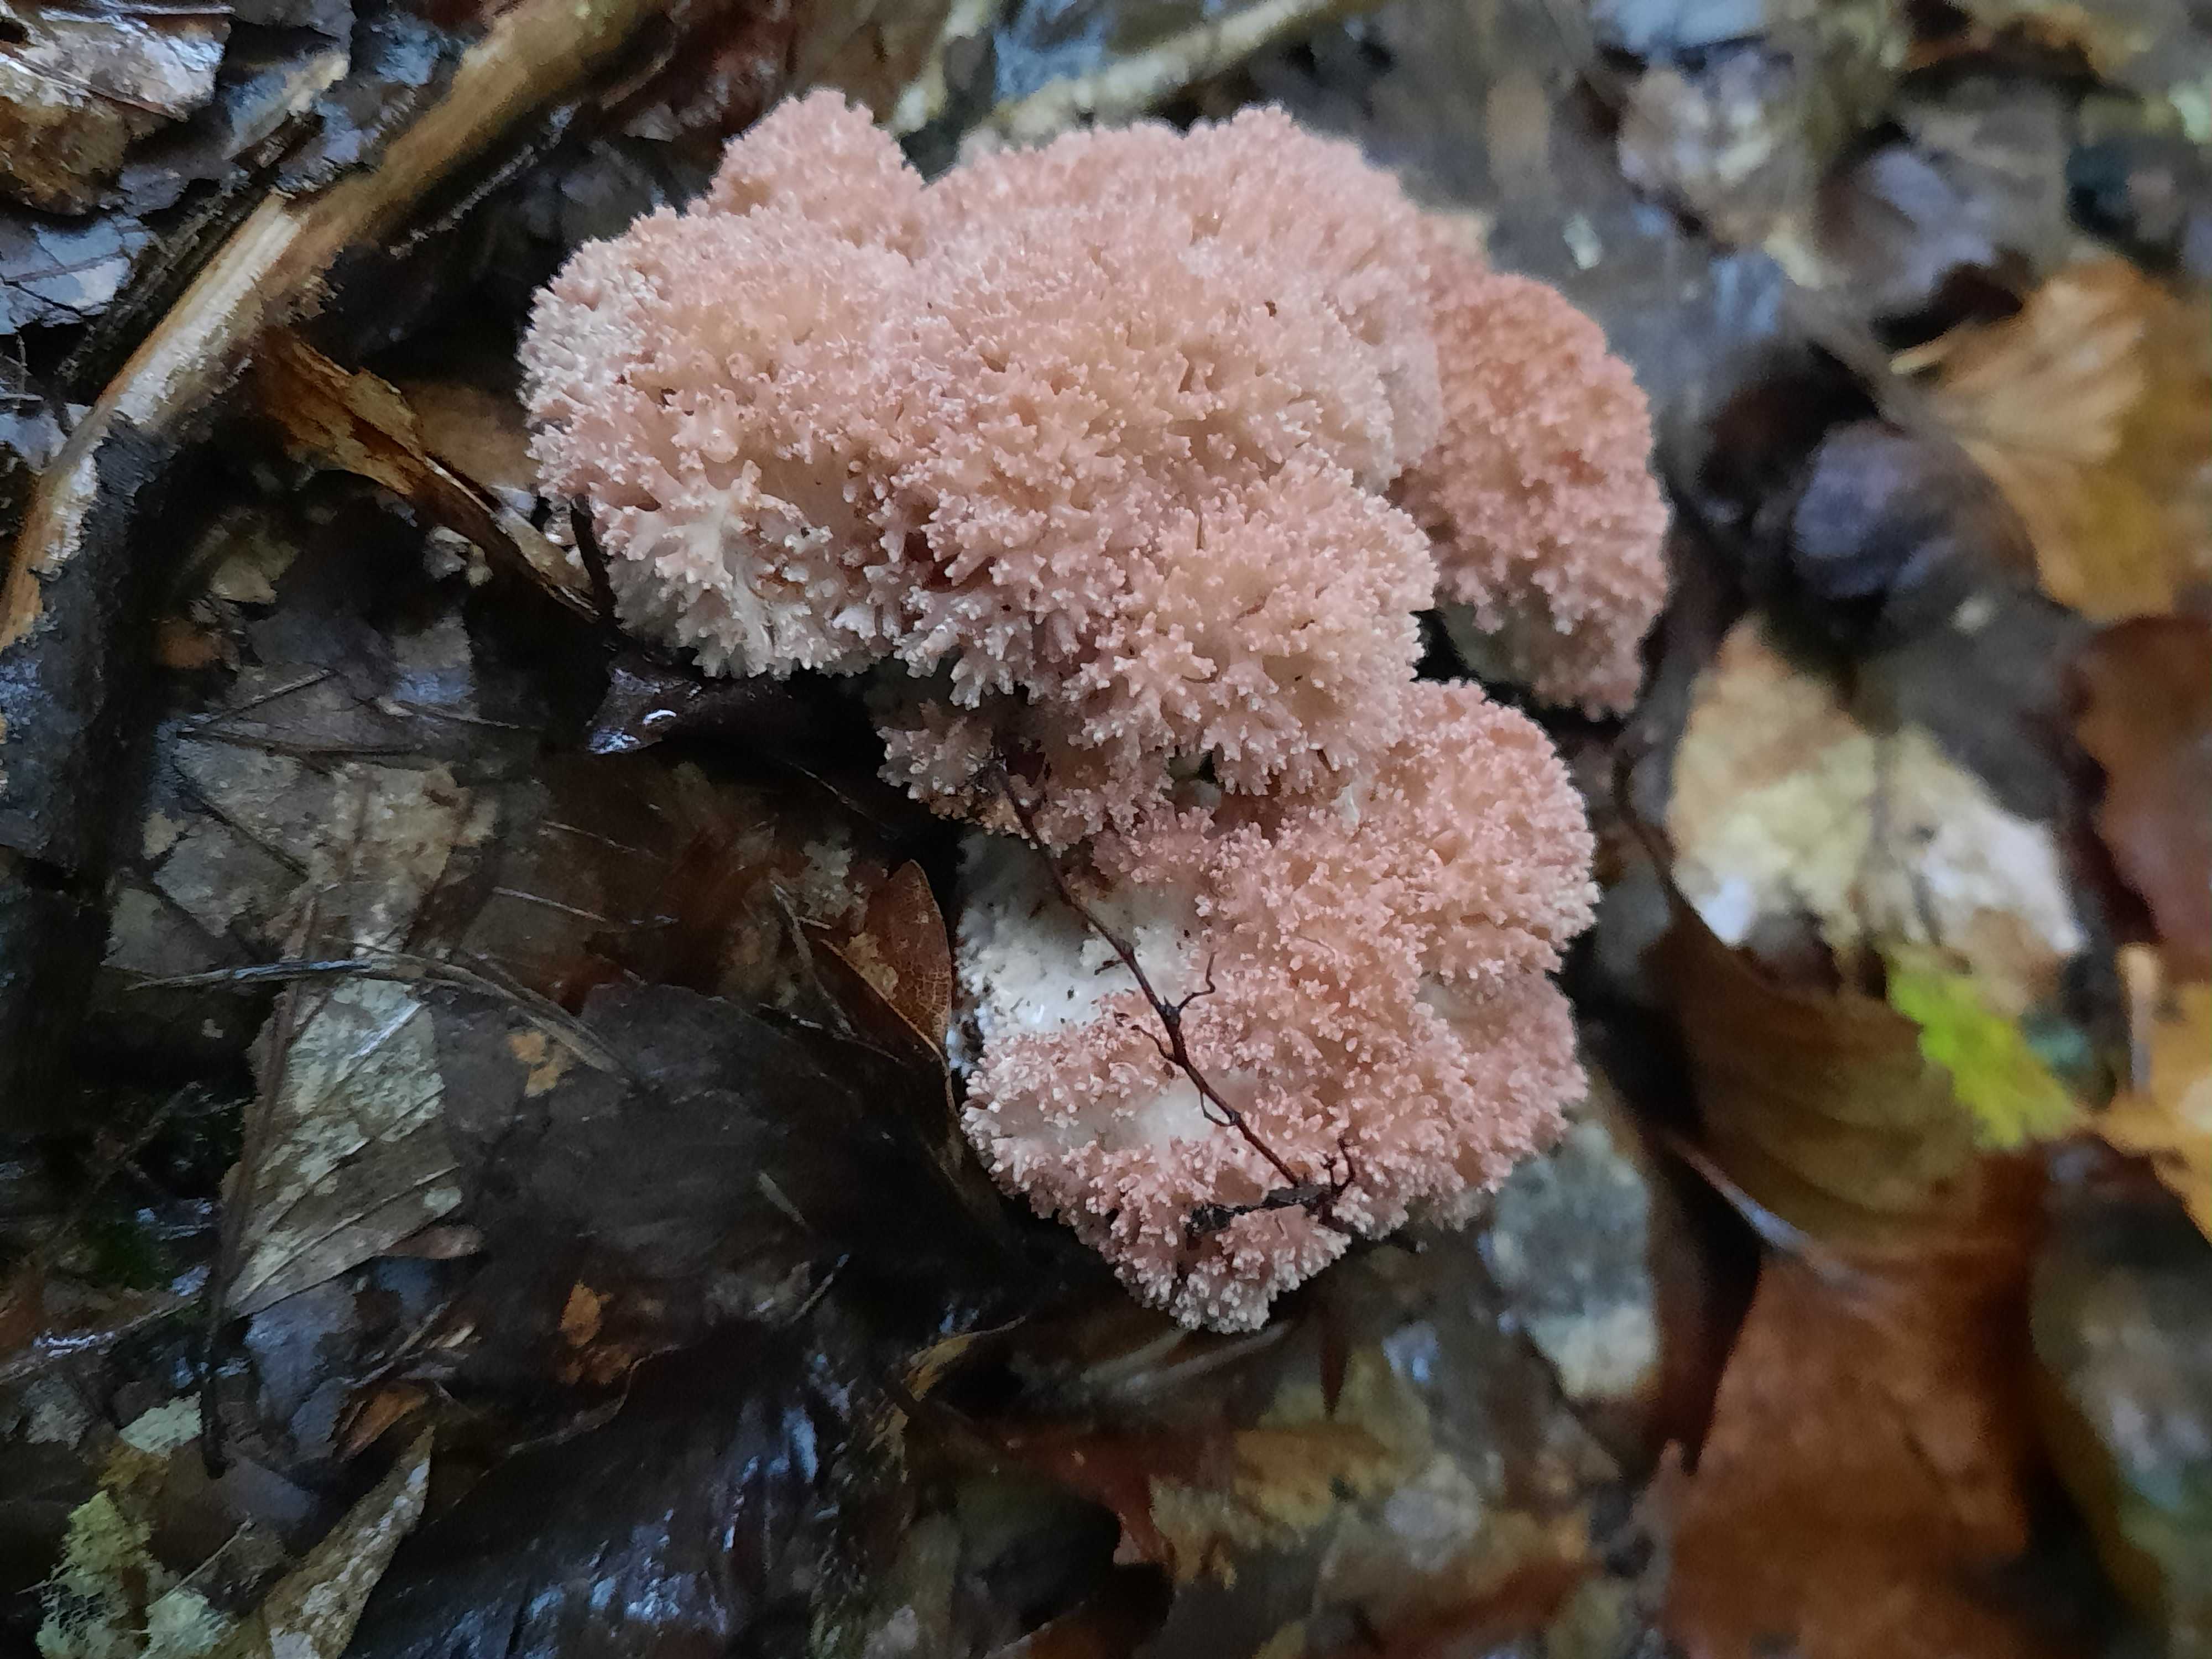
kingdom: Fungi
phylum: Basidiomycota
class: Agaricomycetes
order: Gomphales
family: Gomphaceae
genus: Ramaria
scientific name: Ramaria botrytis
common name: drue-koralsvamp
